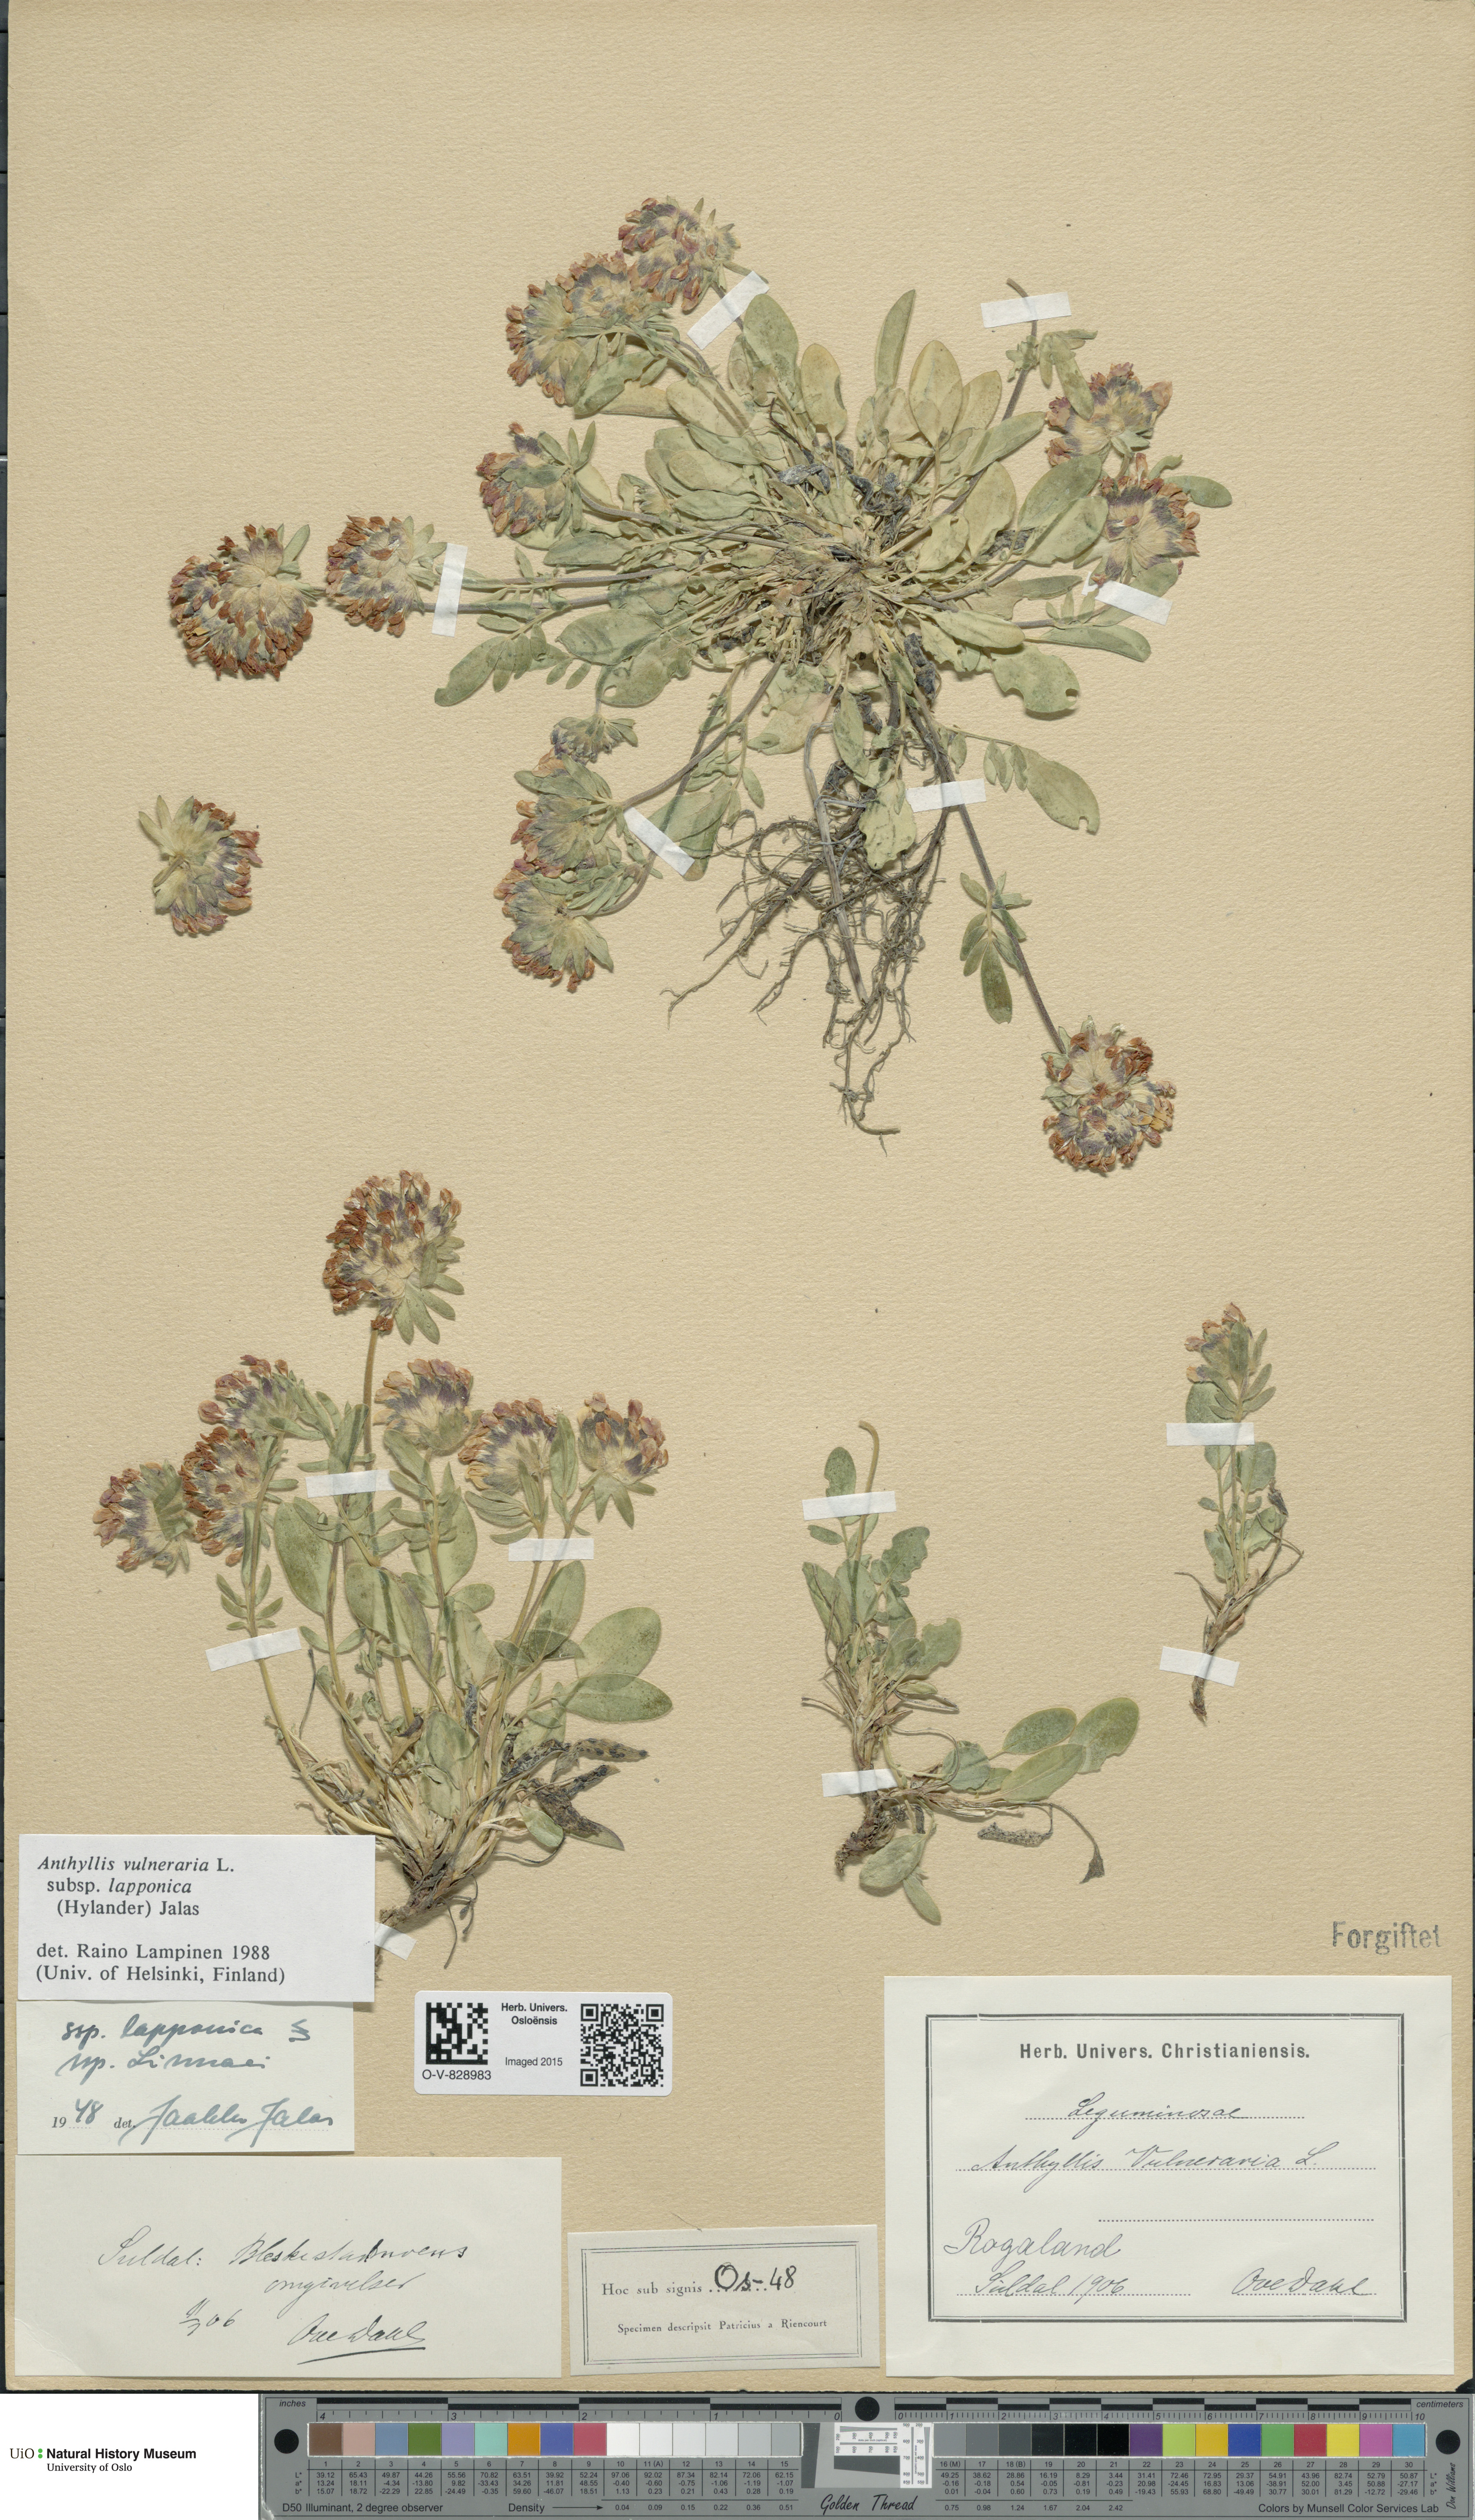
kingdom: Plantae
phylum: Tracheophyta
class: Magnoliopsida
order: Fabales
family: Fabaceae
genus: Anthyllis
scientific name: Anthyllis vulneraria
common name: Kidney vetch
